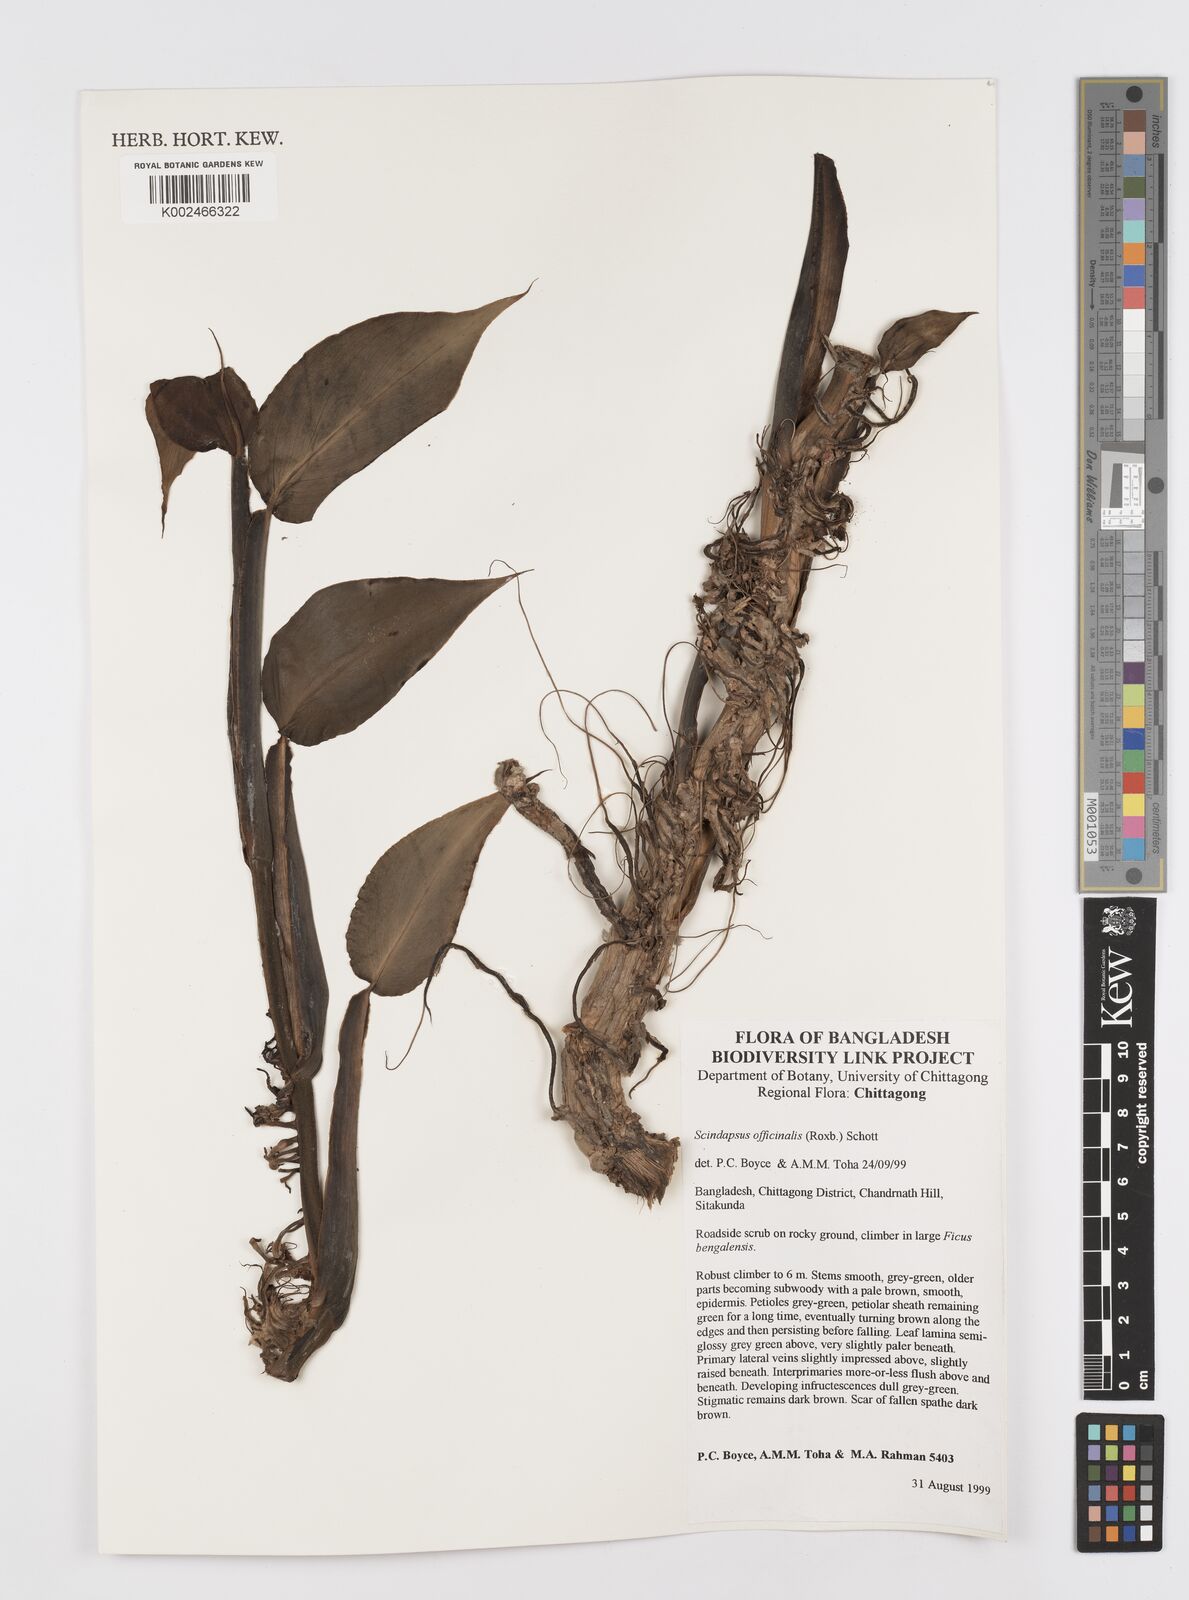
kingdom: Plantae
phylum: Tracheophyta
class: Liliopsida
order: Alismatales
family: Araceae
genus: Scindapsus
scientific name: Scindapsus officinalis
